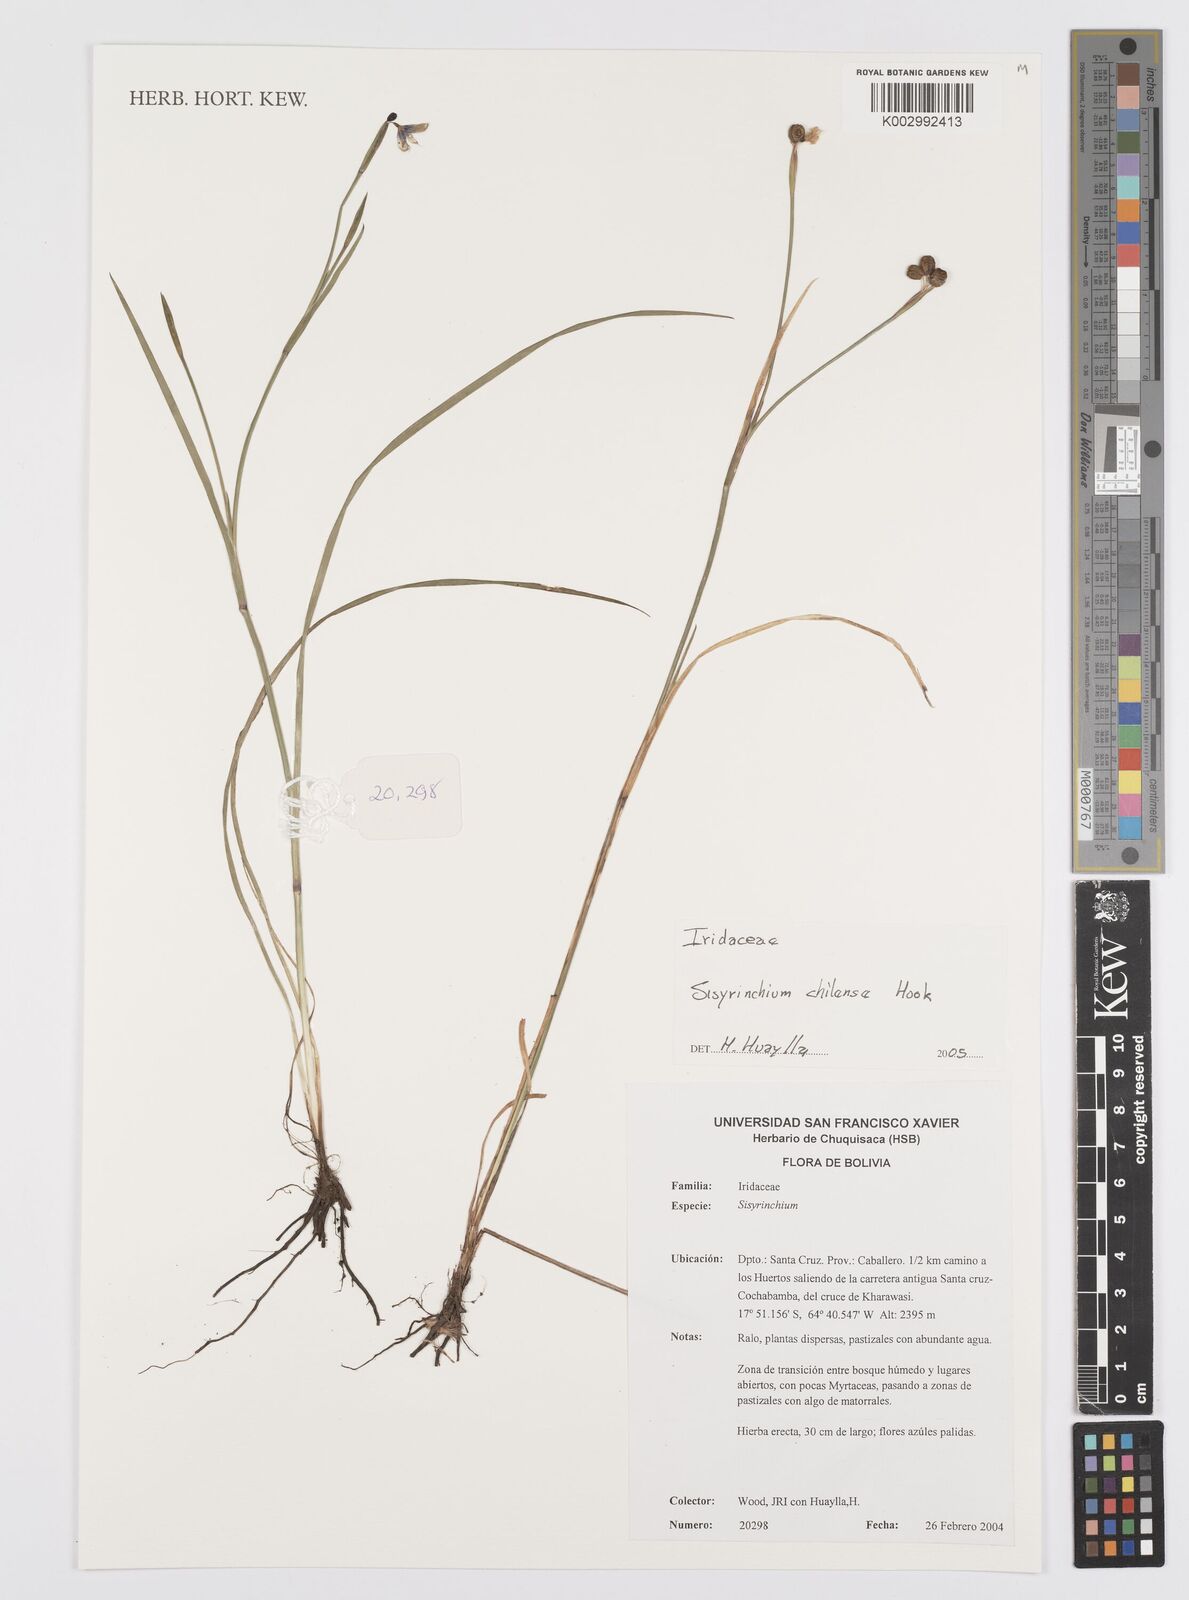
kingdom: Plantae
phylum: Tracheophyta
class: Liliopsida
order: Asparagales
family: Iridaceae
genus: Sisyrinchium
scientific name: Sisyrinchium chilense
